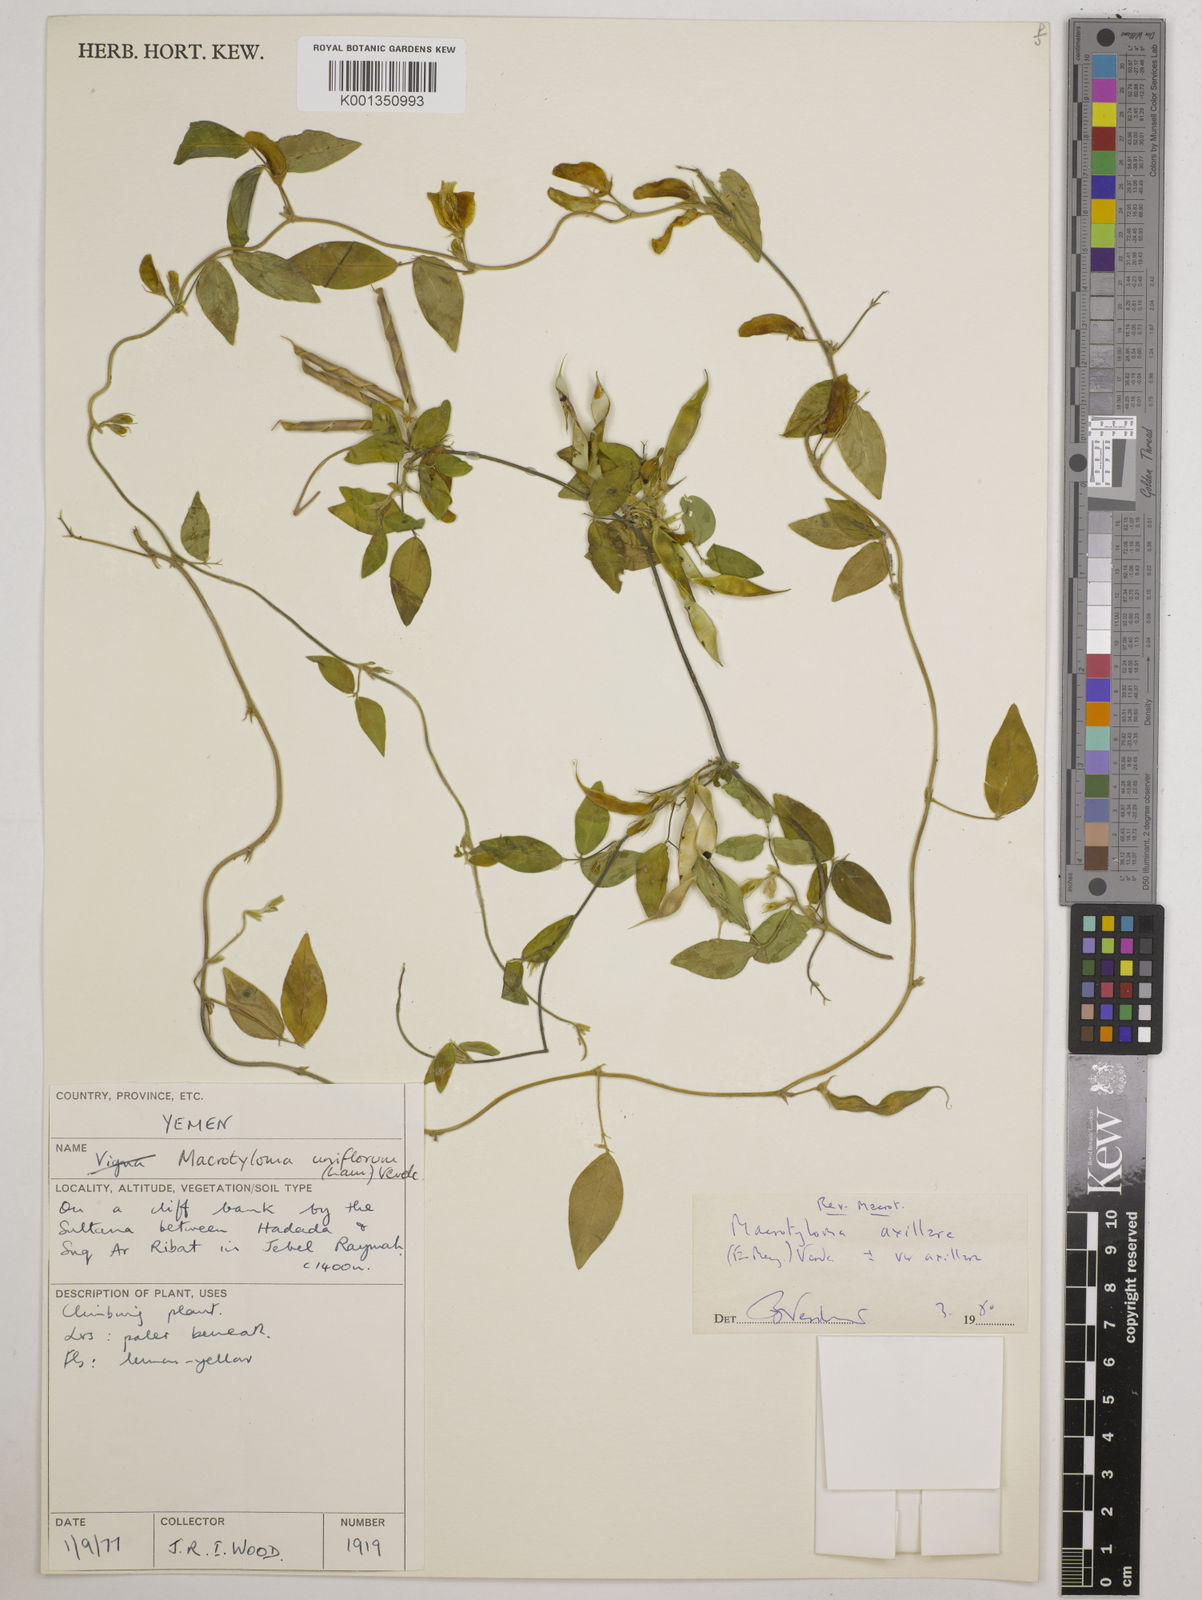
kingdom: Plantae
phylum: Tracheophyta
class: Magnoliopsida
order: Fabales
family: Fabaceae
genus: Macrotyloma
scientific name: Macrotyloma axillare
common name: Perennial horsegram
